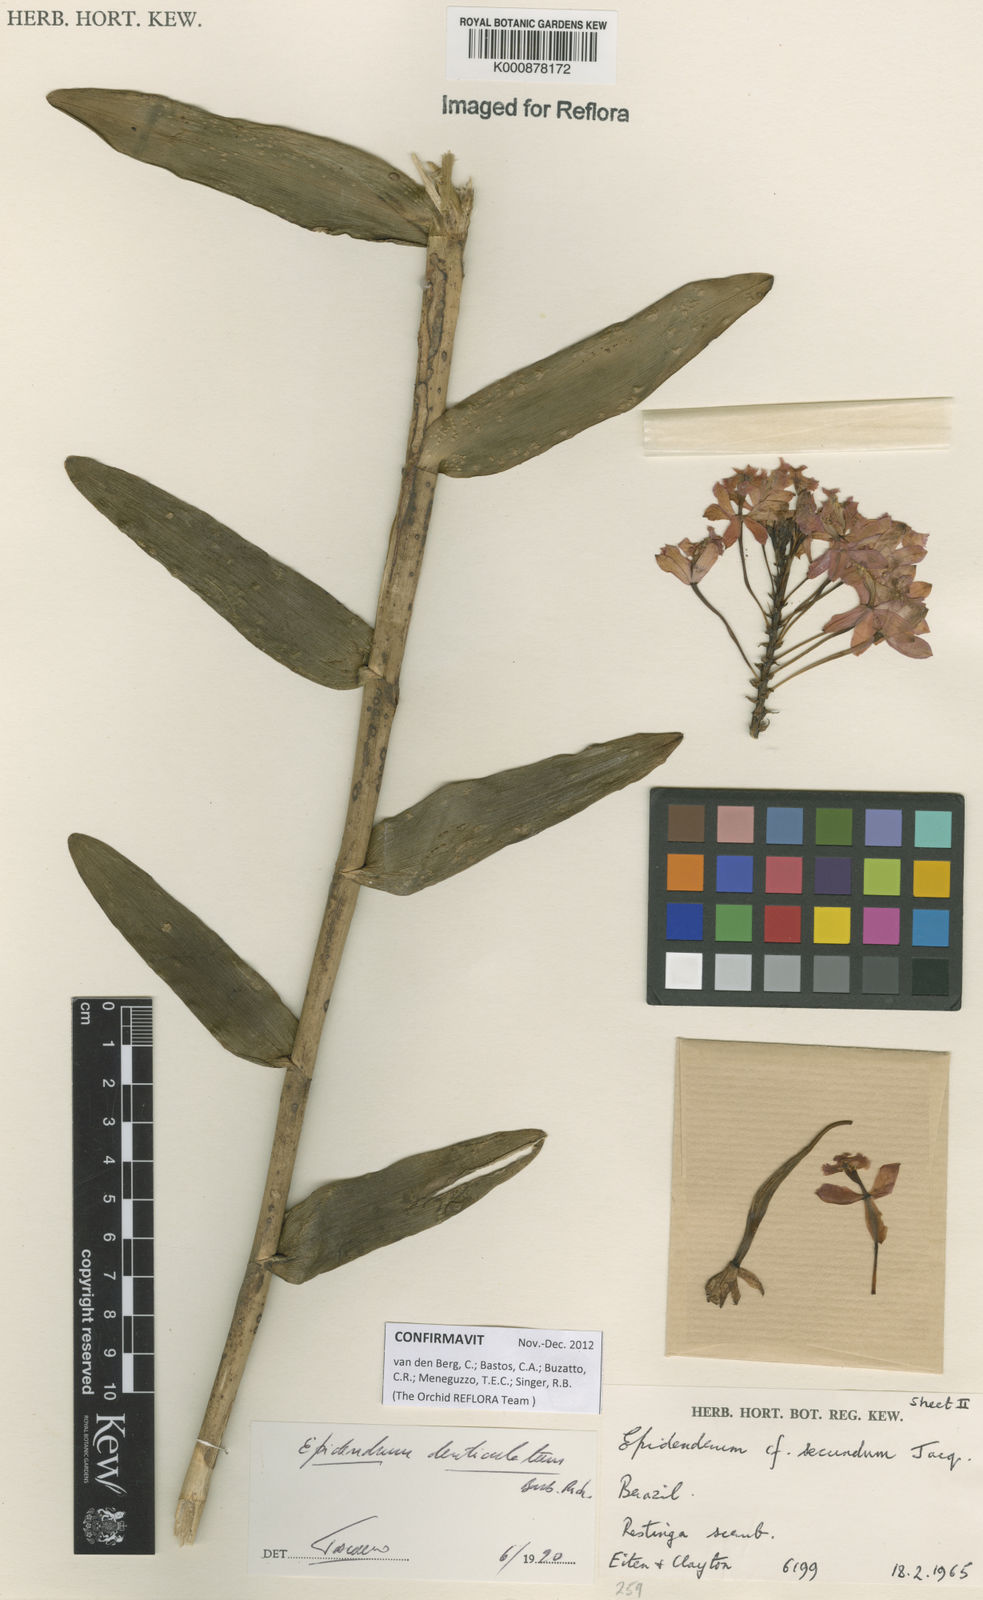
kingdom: Plantae
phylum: Tracheophyta
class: Liliopsida
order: Asparagales
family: Orchidaceae
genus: Epidendrum
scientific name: Epidendrum denticulatum
